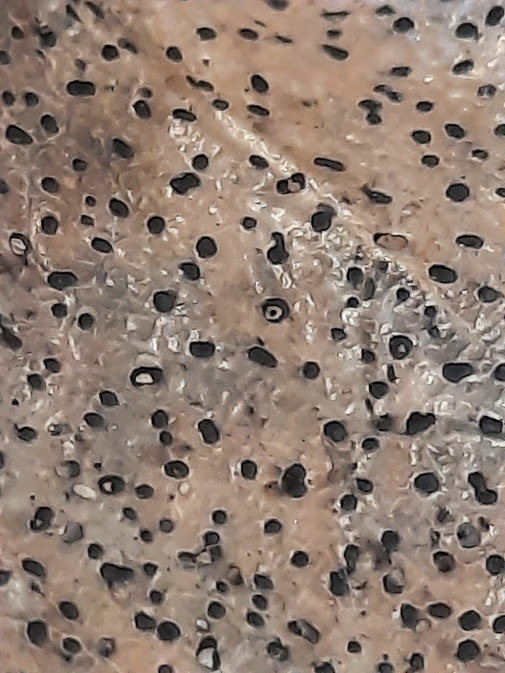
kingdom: Fungi
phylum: Ascomycota
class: Leotiomycetes
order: Helotiales
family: Cenangiaceae
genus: Trochila
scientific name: Trochila ilicina
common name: kristtorn-lågskive
